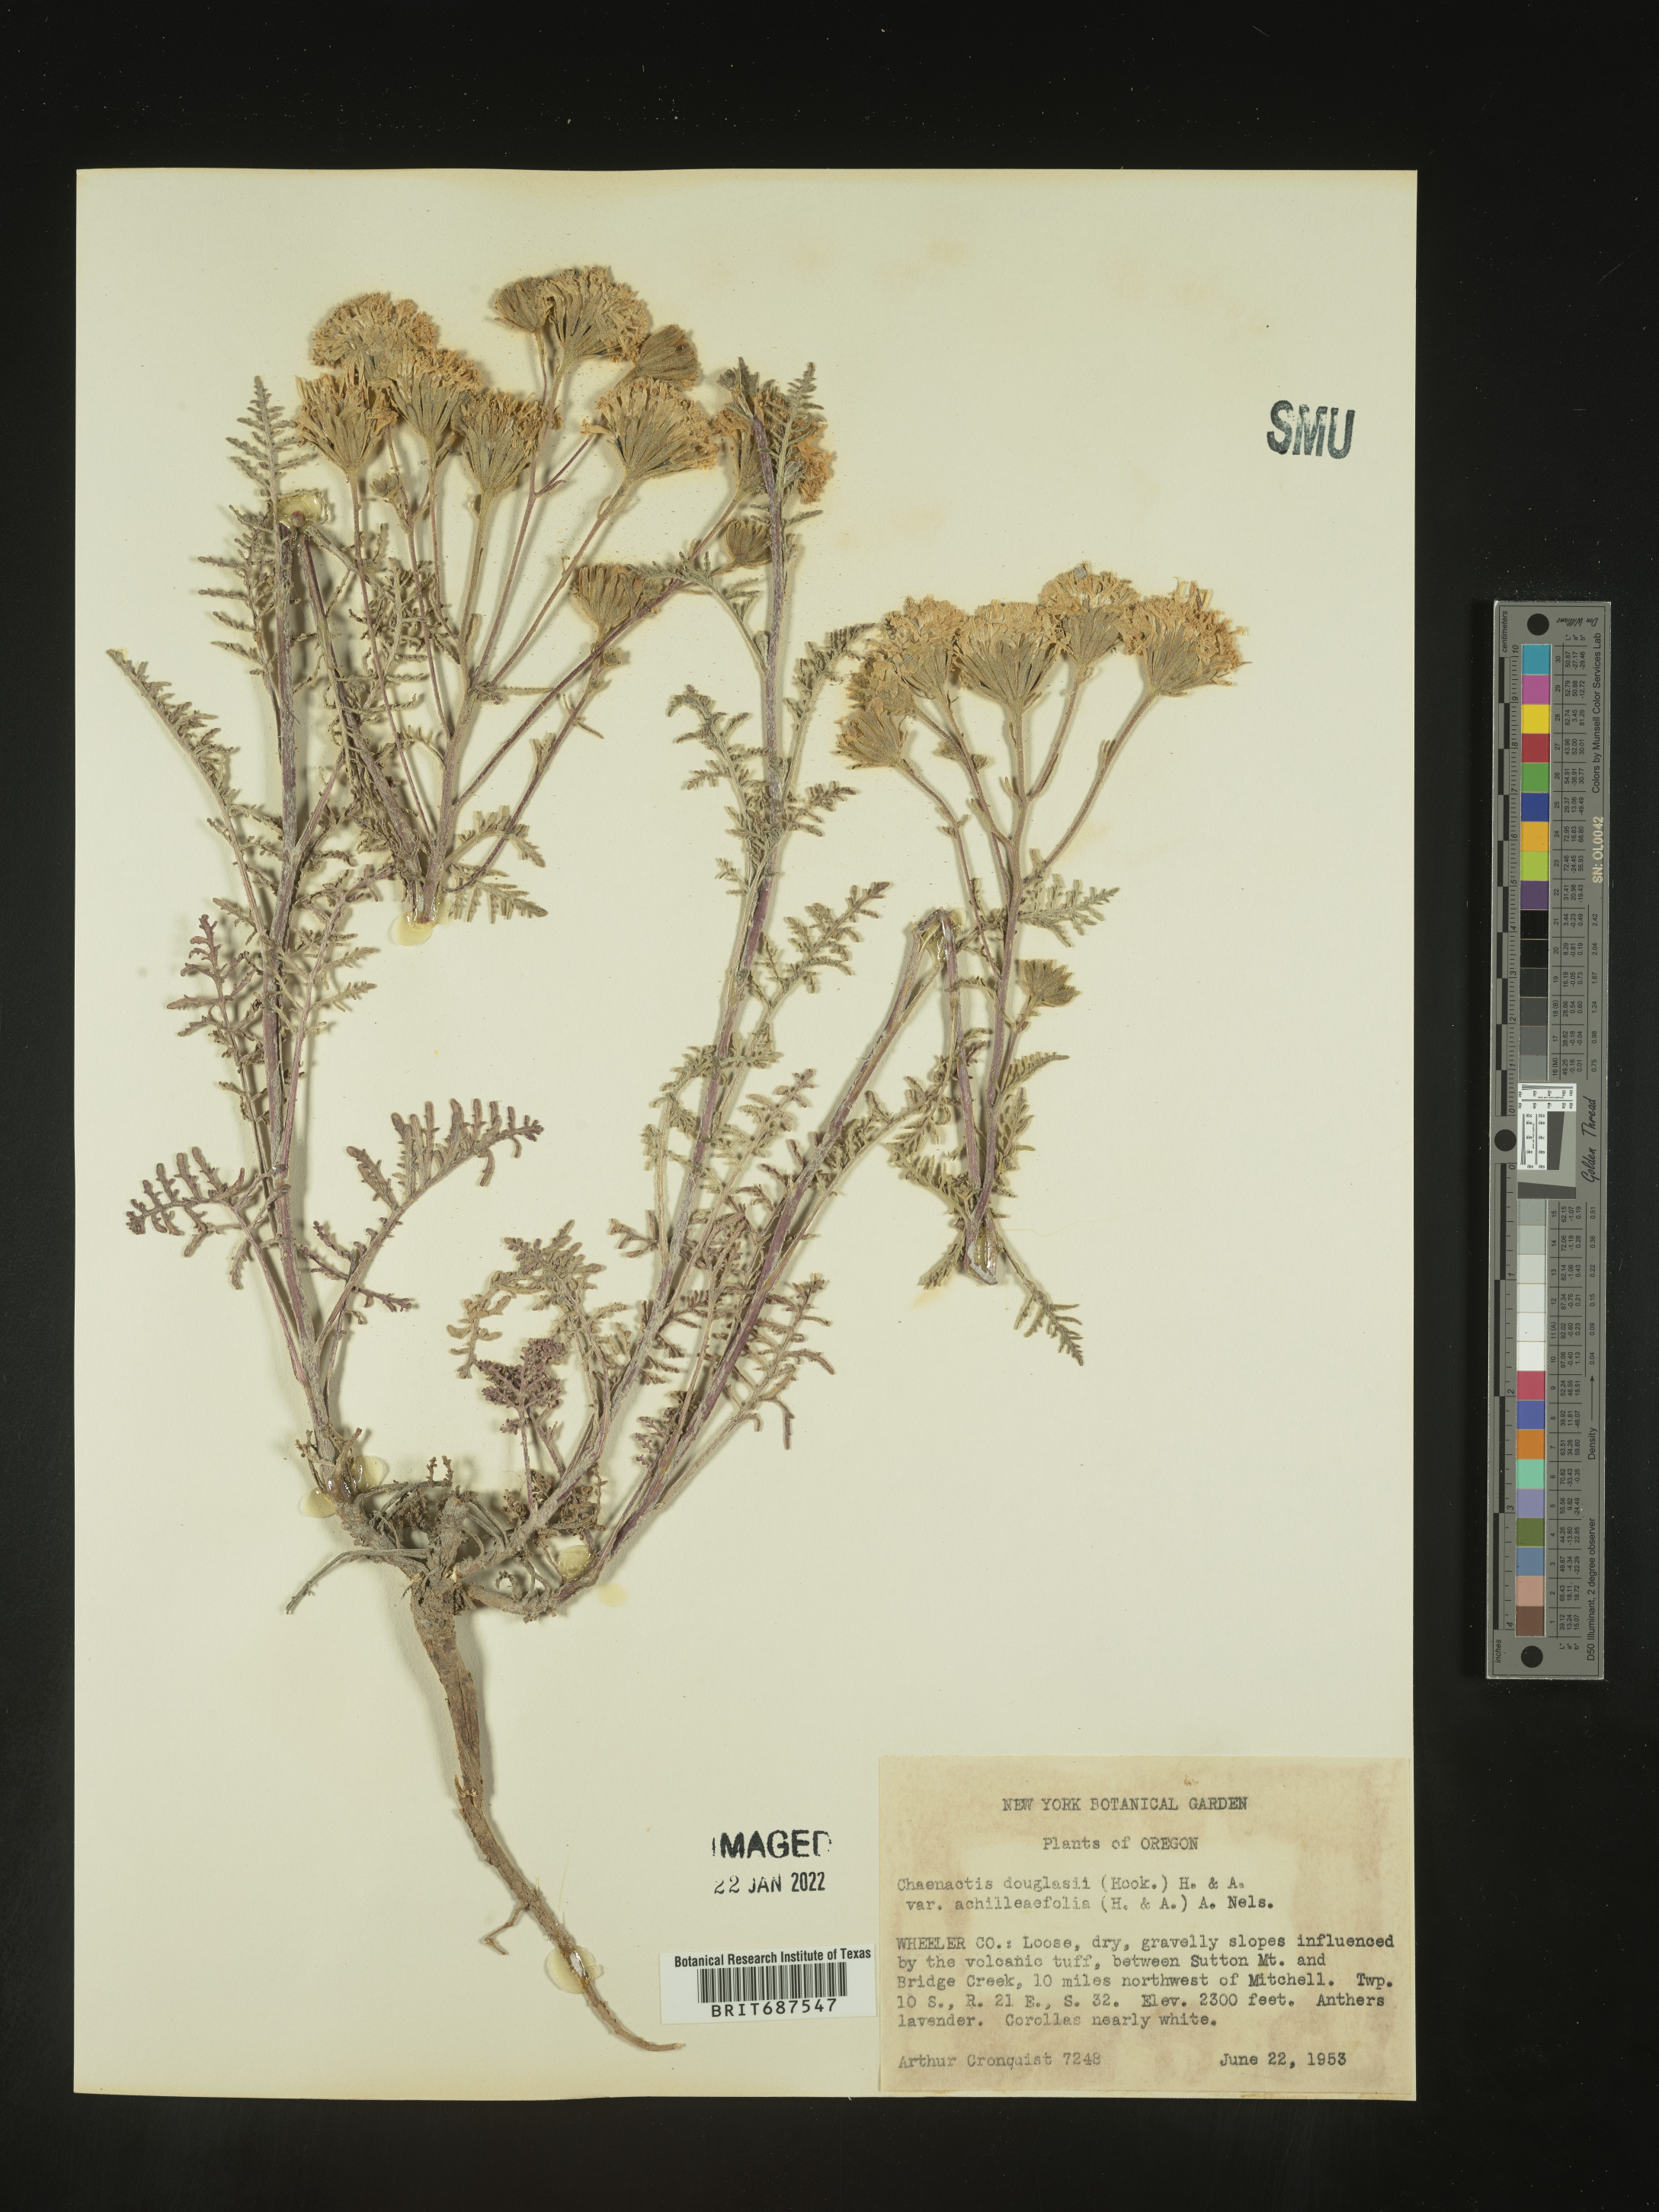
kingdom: Plantae
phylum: Tracheophyta
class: Magnoliopsida
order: Asterales
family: Asteraceae
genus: Chaenactis
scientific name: Chaenactis douglasii
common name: Hoary pincushion
